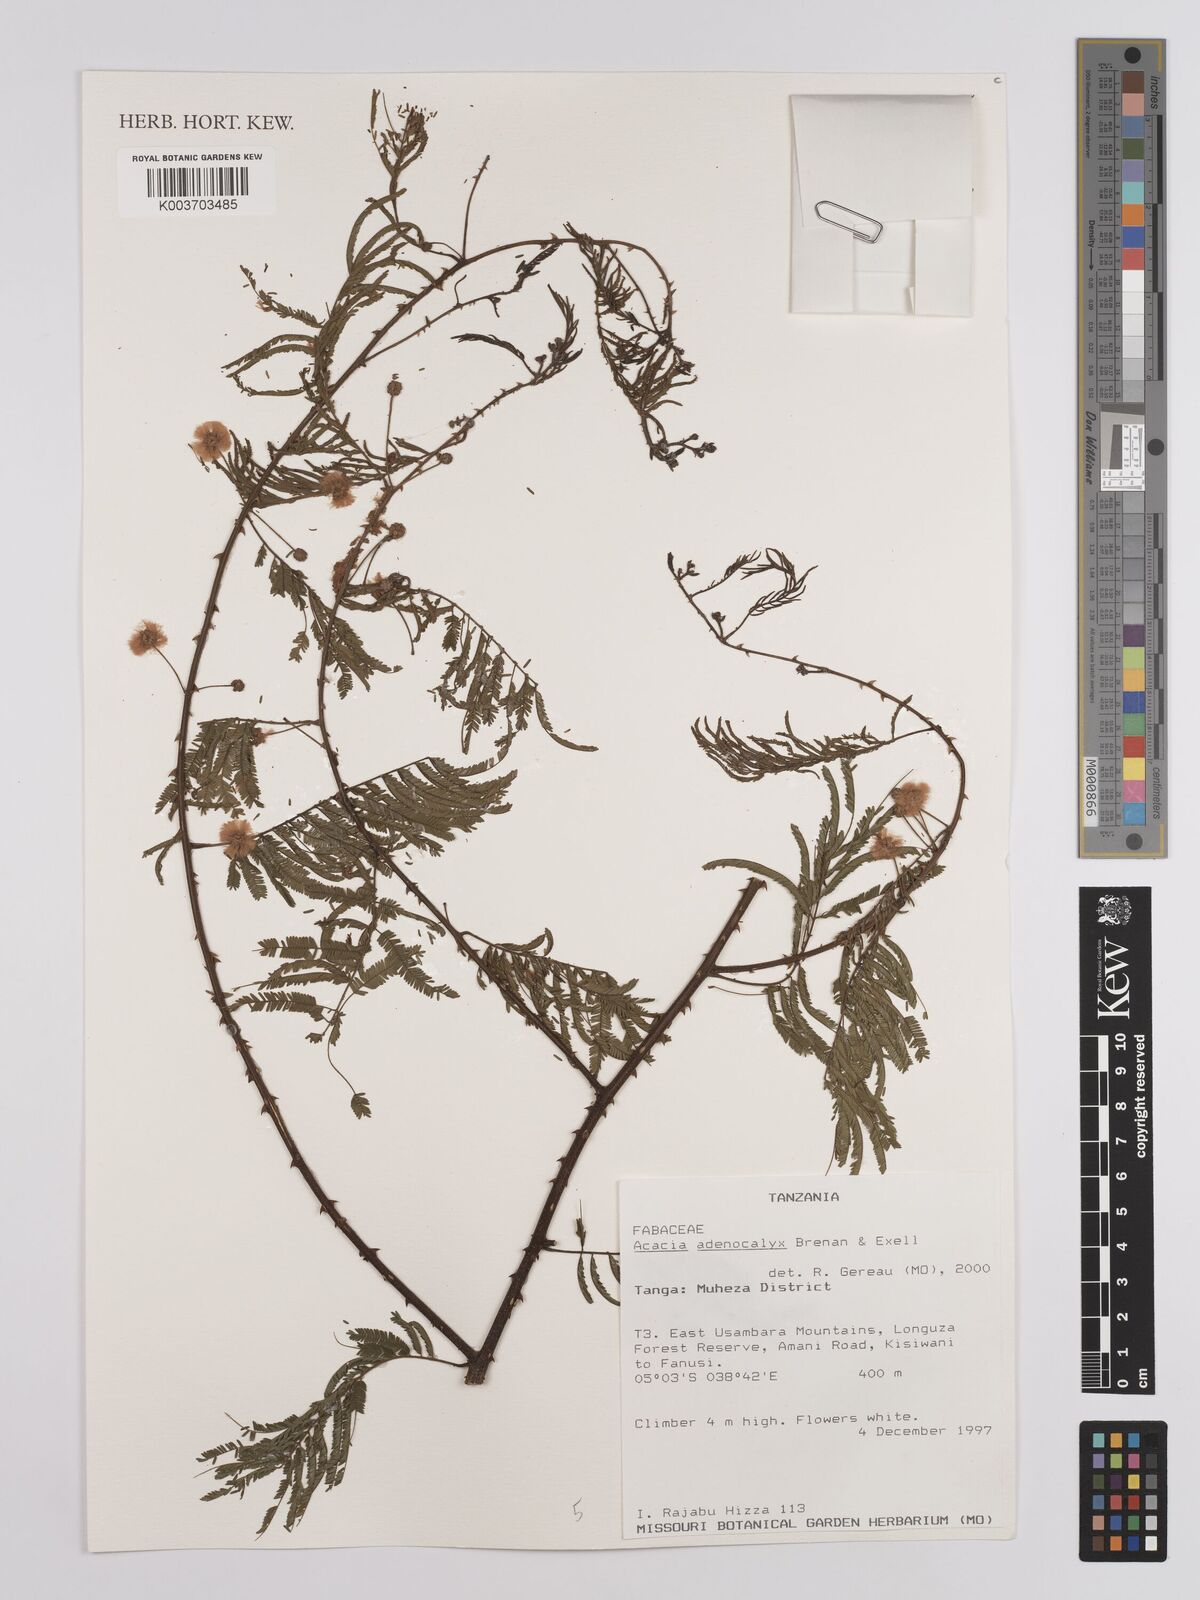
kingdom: Plantae
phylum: Tracheophyta
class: Magnoliopsida
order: Fabales
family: Fabaceae
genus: Senegalia
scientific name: Senegalia adenocalyx
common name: Pfurura
